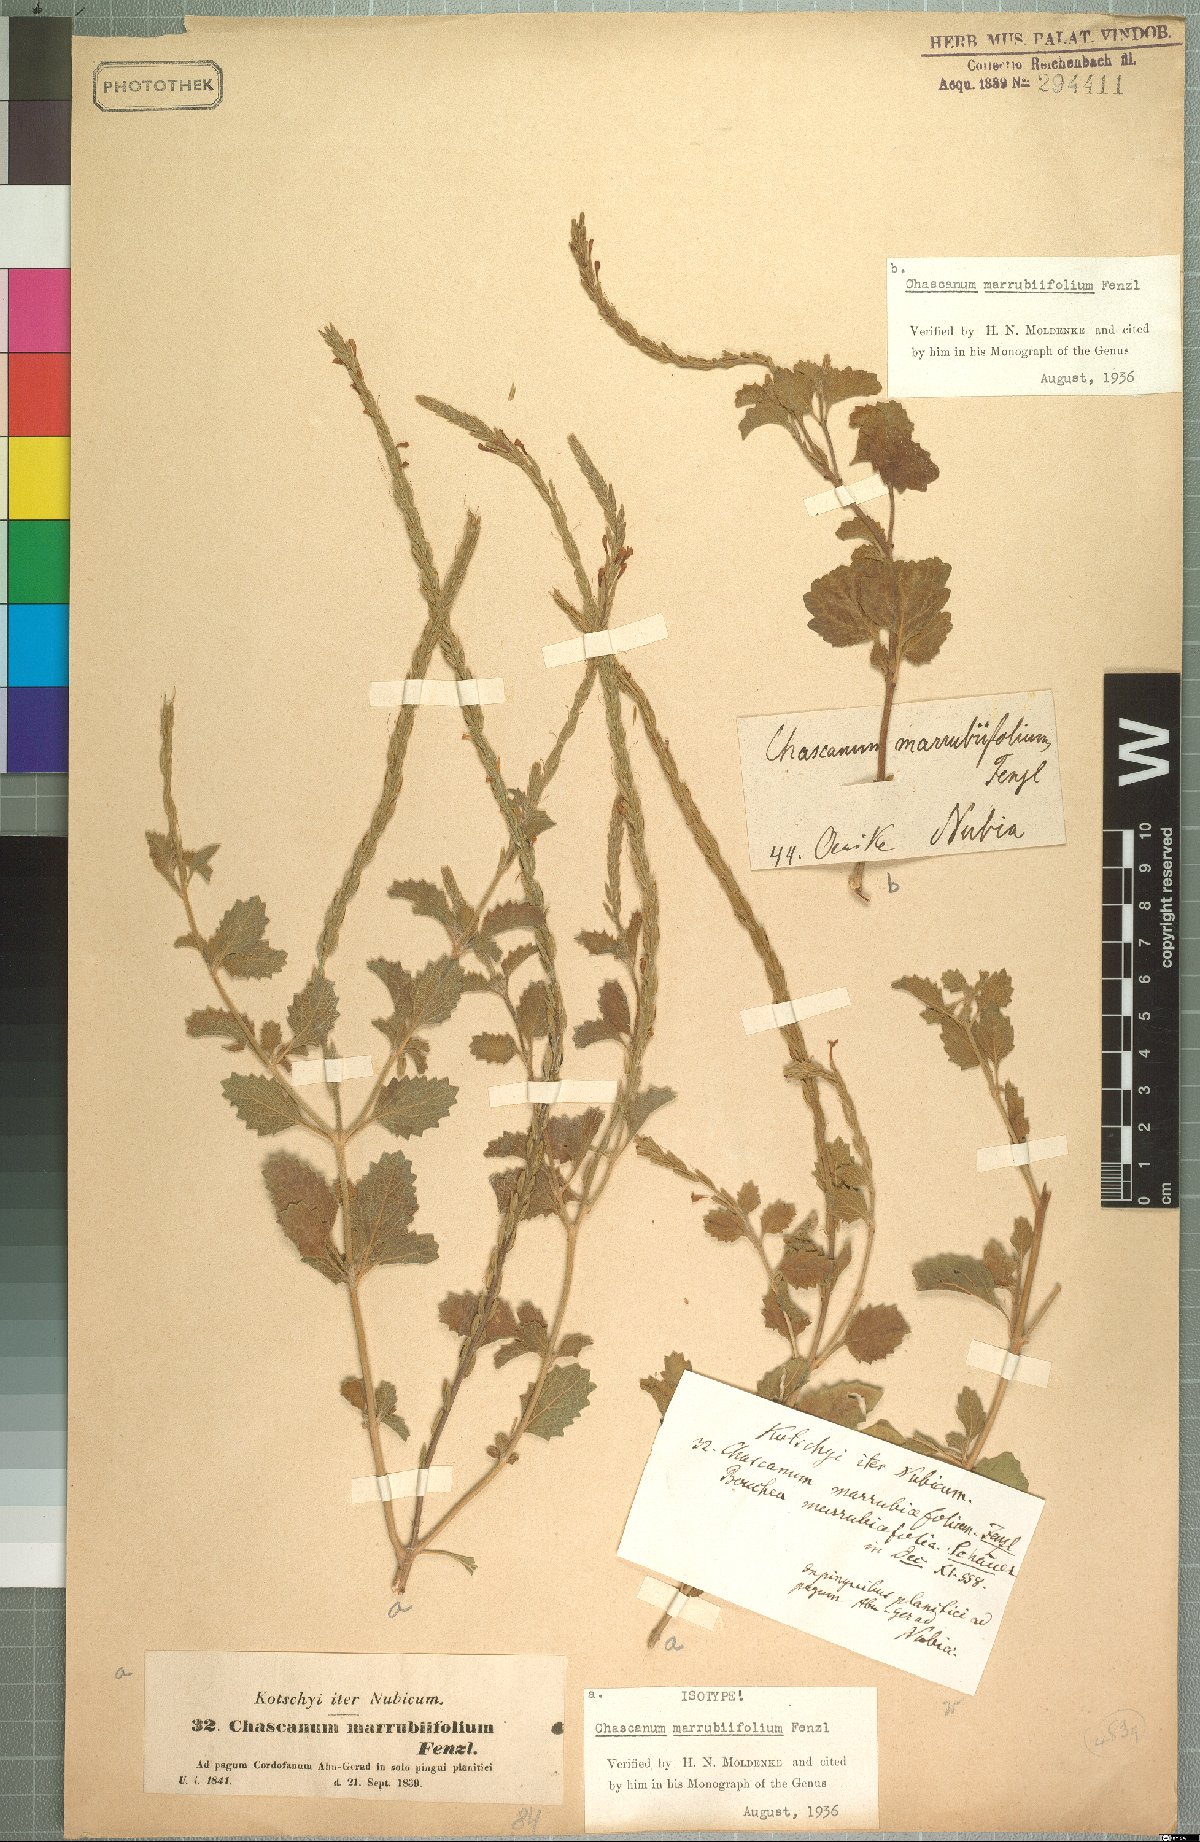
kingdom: Plantae
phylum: Tracheophyta
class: Magnoliopsida
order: Lamiales
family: Verbenaceae
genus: Chascanum
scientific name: Chascanum marrubiifolium
